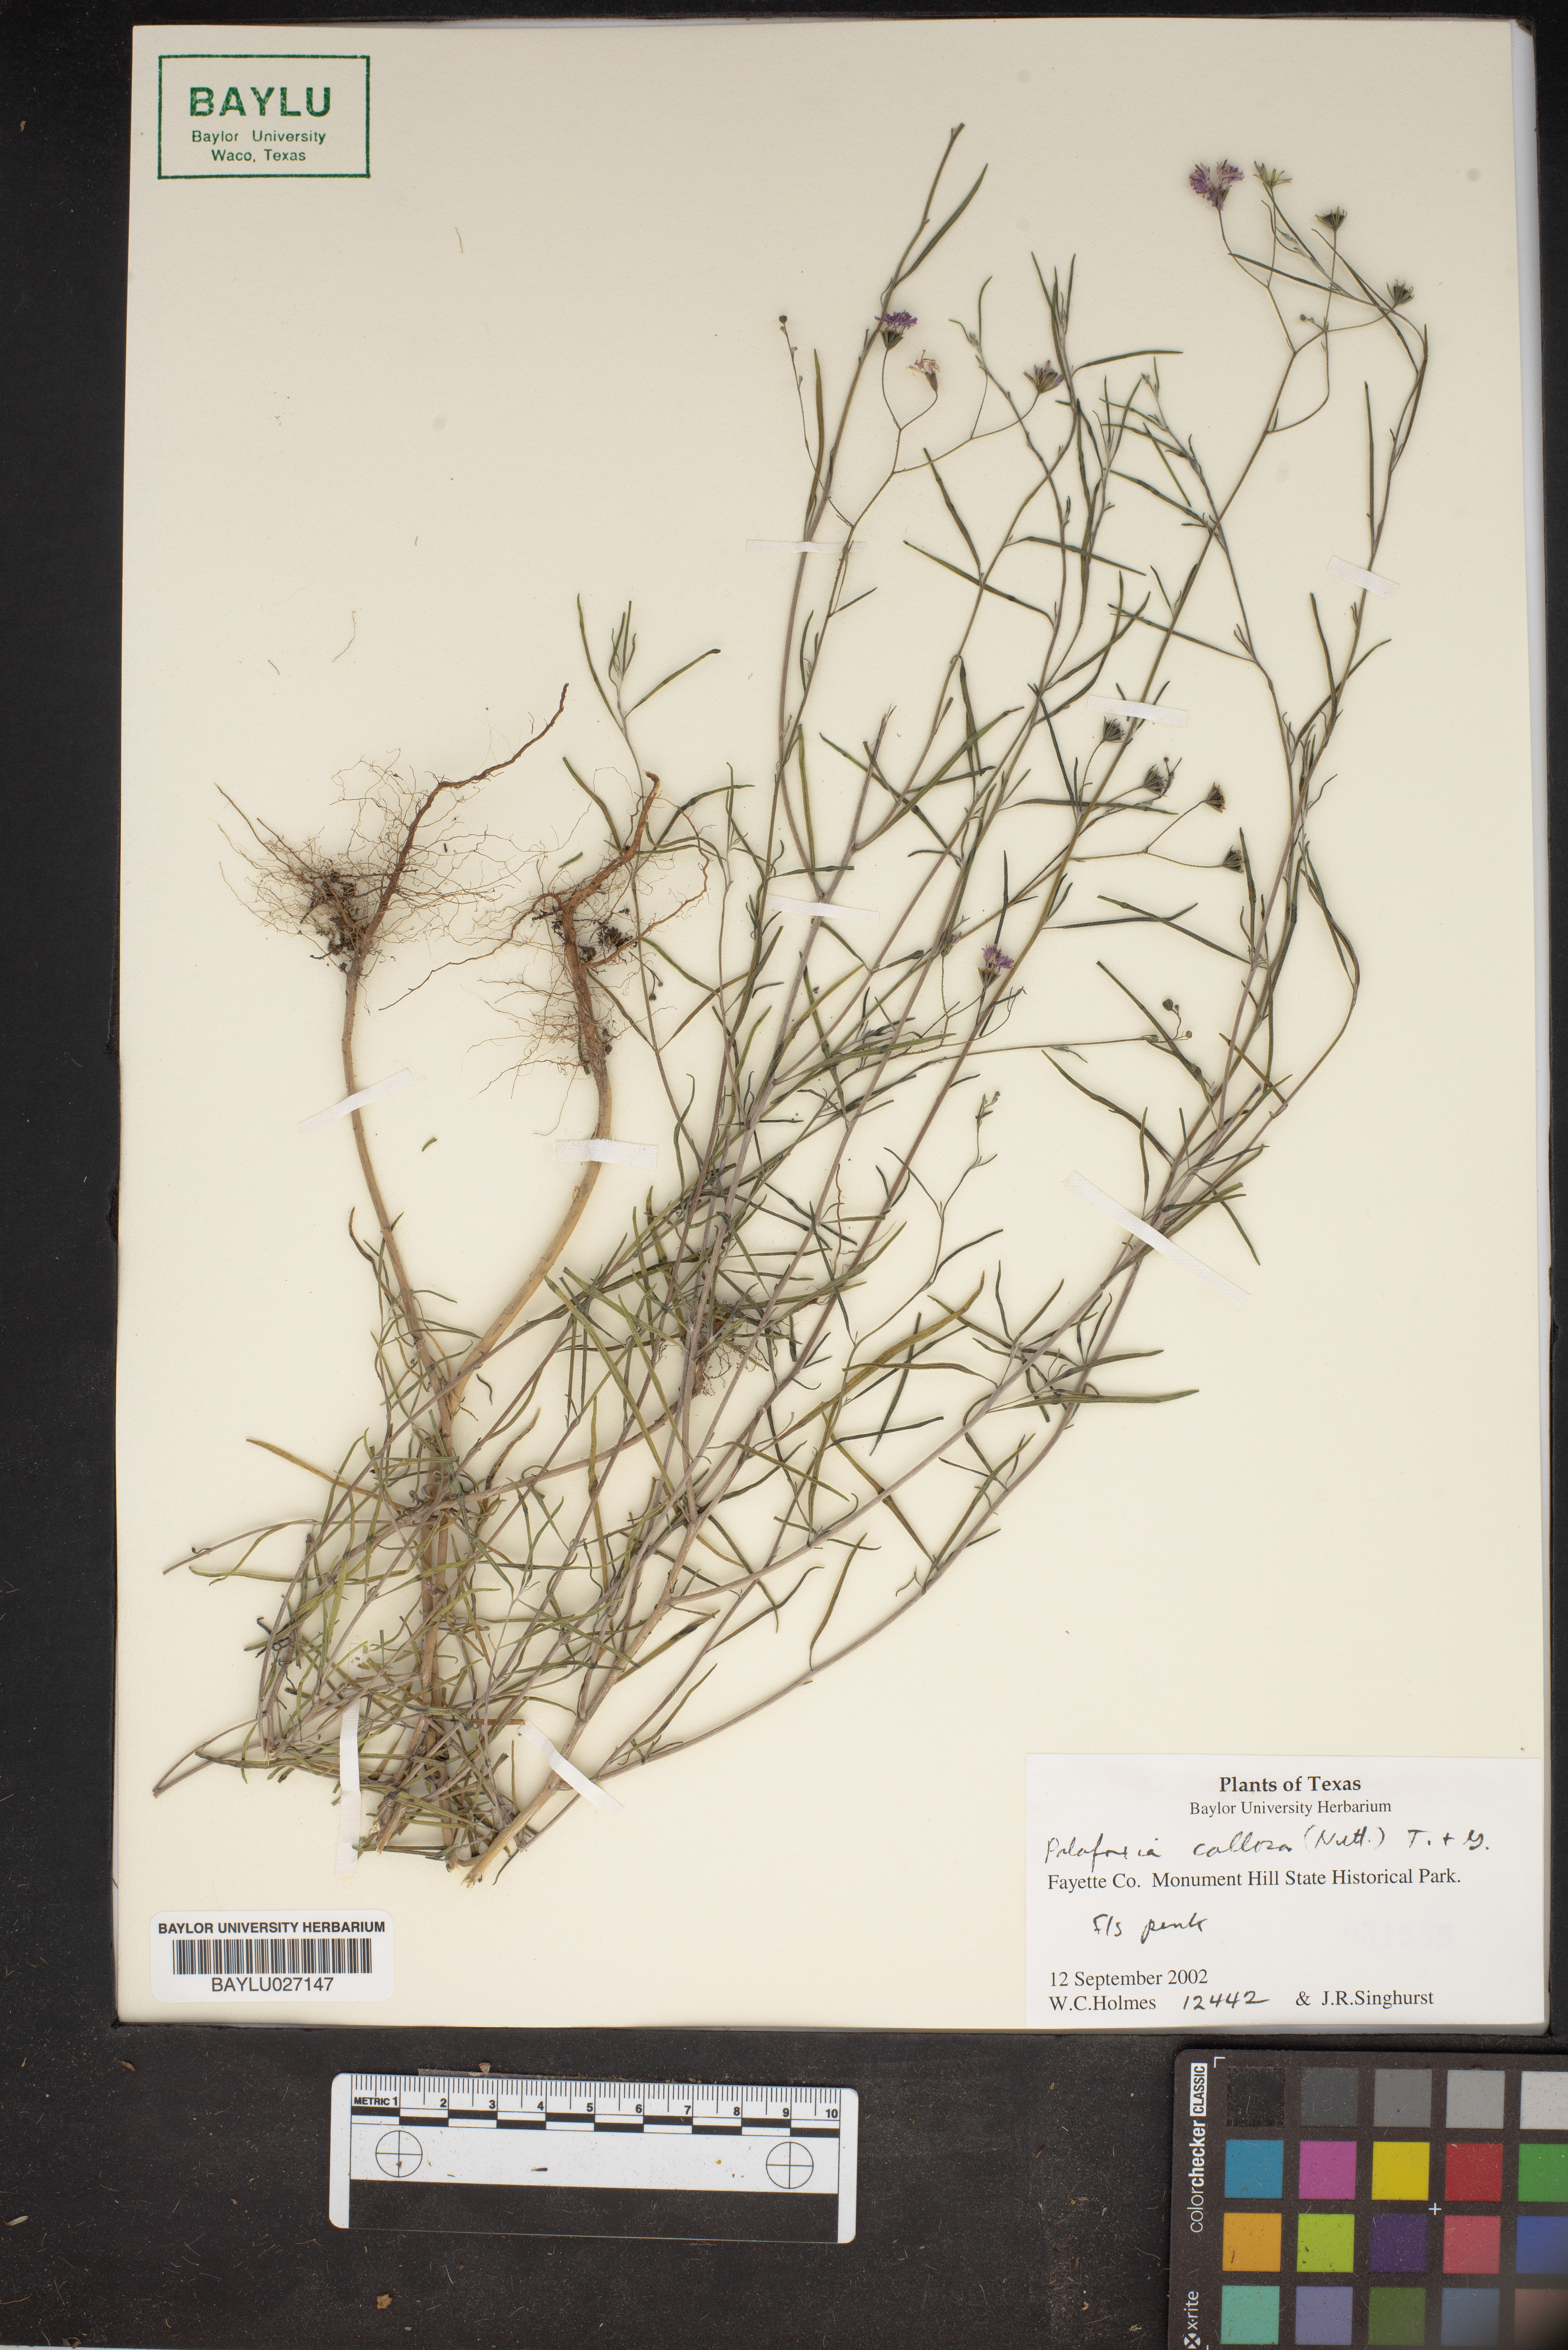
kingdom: Plantae
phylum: Tracheophyta
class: Magnoliopsida
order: Asterales
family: Asteraceae
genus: Palafoxia
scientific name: Palafoxia callosa
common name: Small palafox
